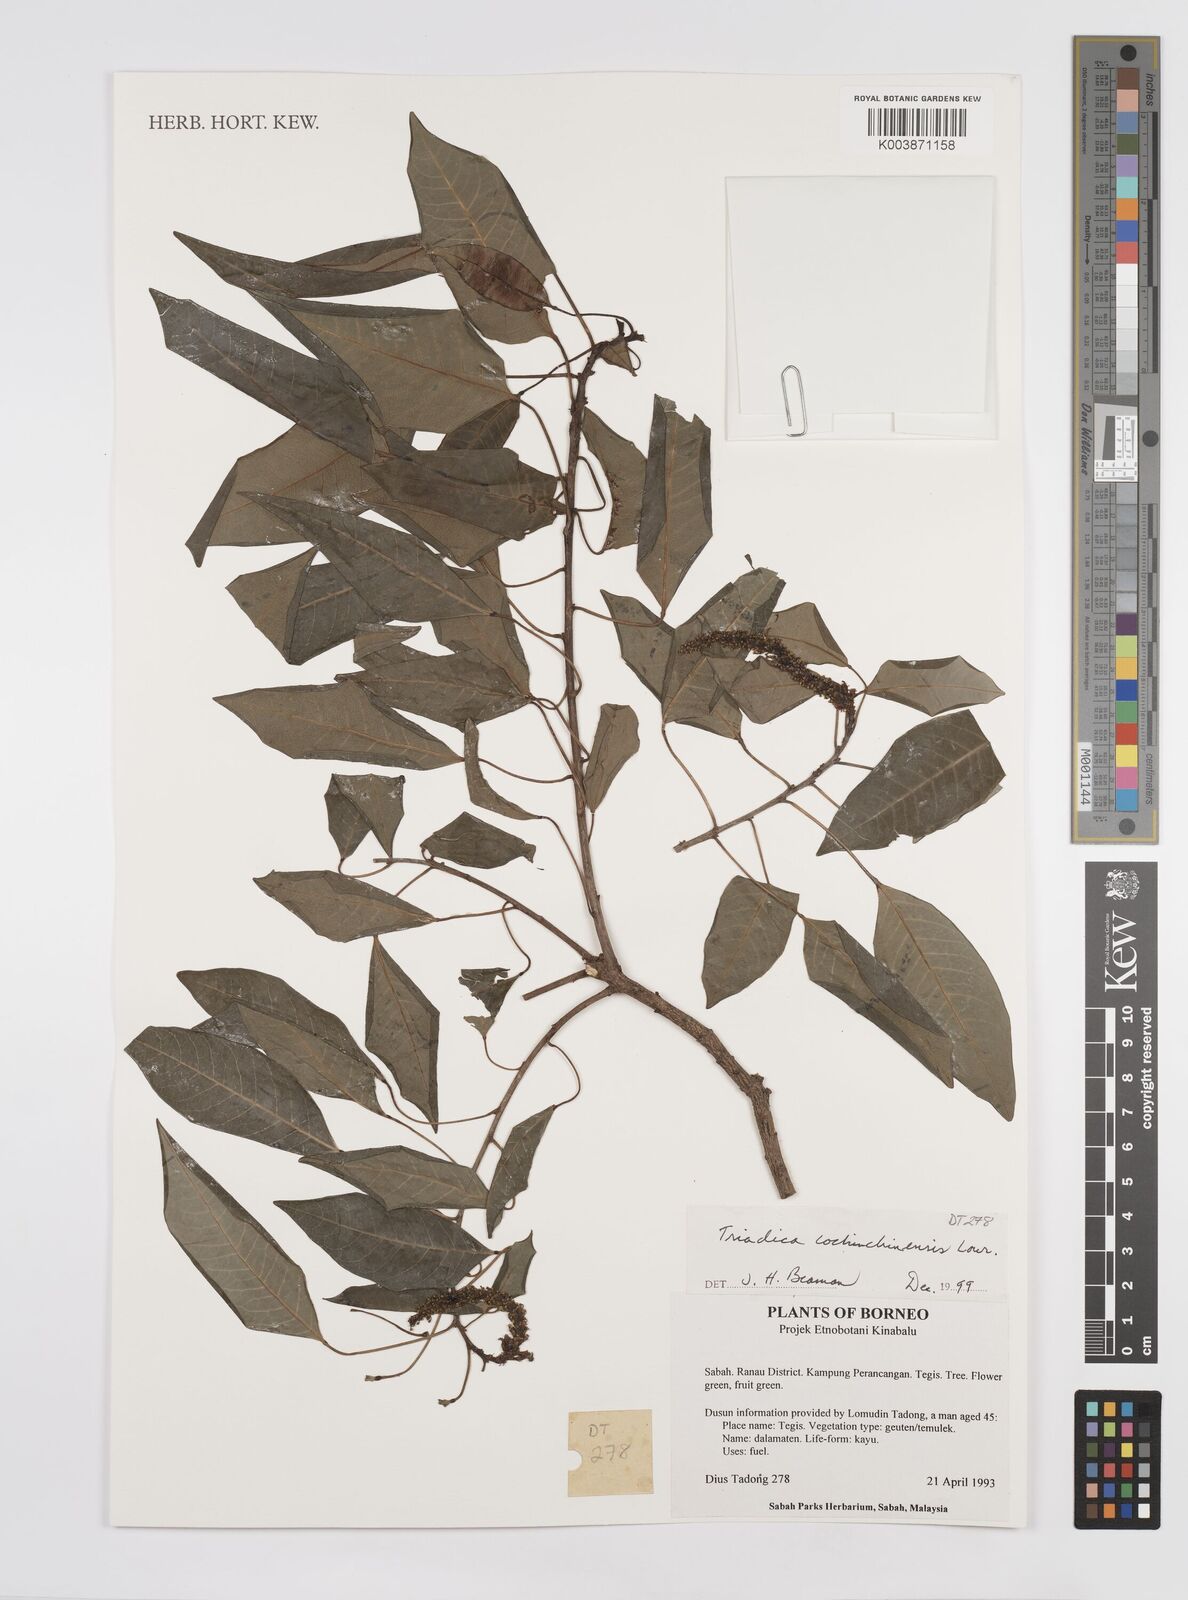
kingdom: Plantae
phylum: Tracheophyta
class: Magnoliopsida
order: Malpighiales
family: Euphorbiaceae
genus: Triadica
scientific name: Triadica cochinchinensis
